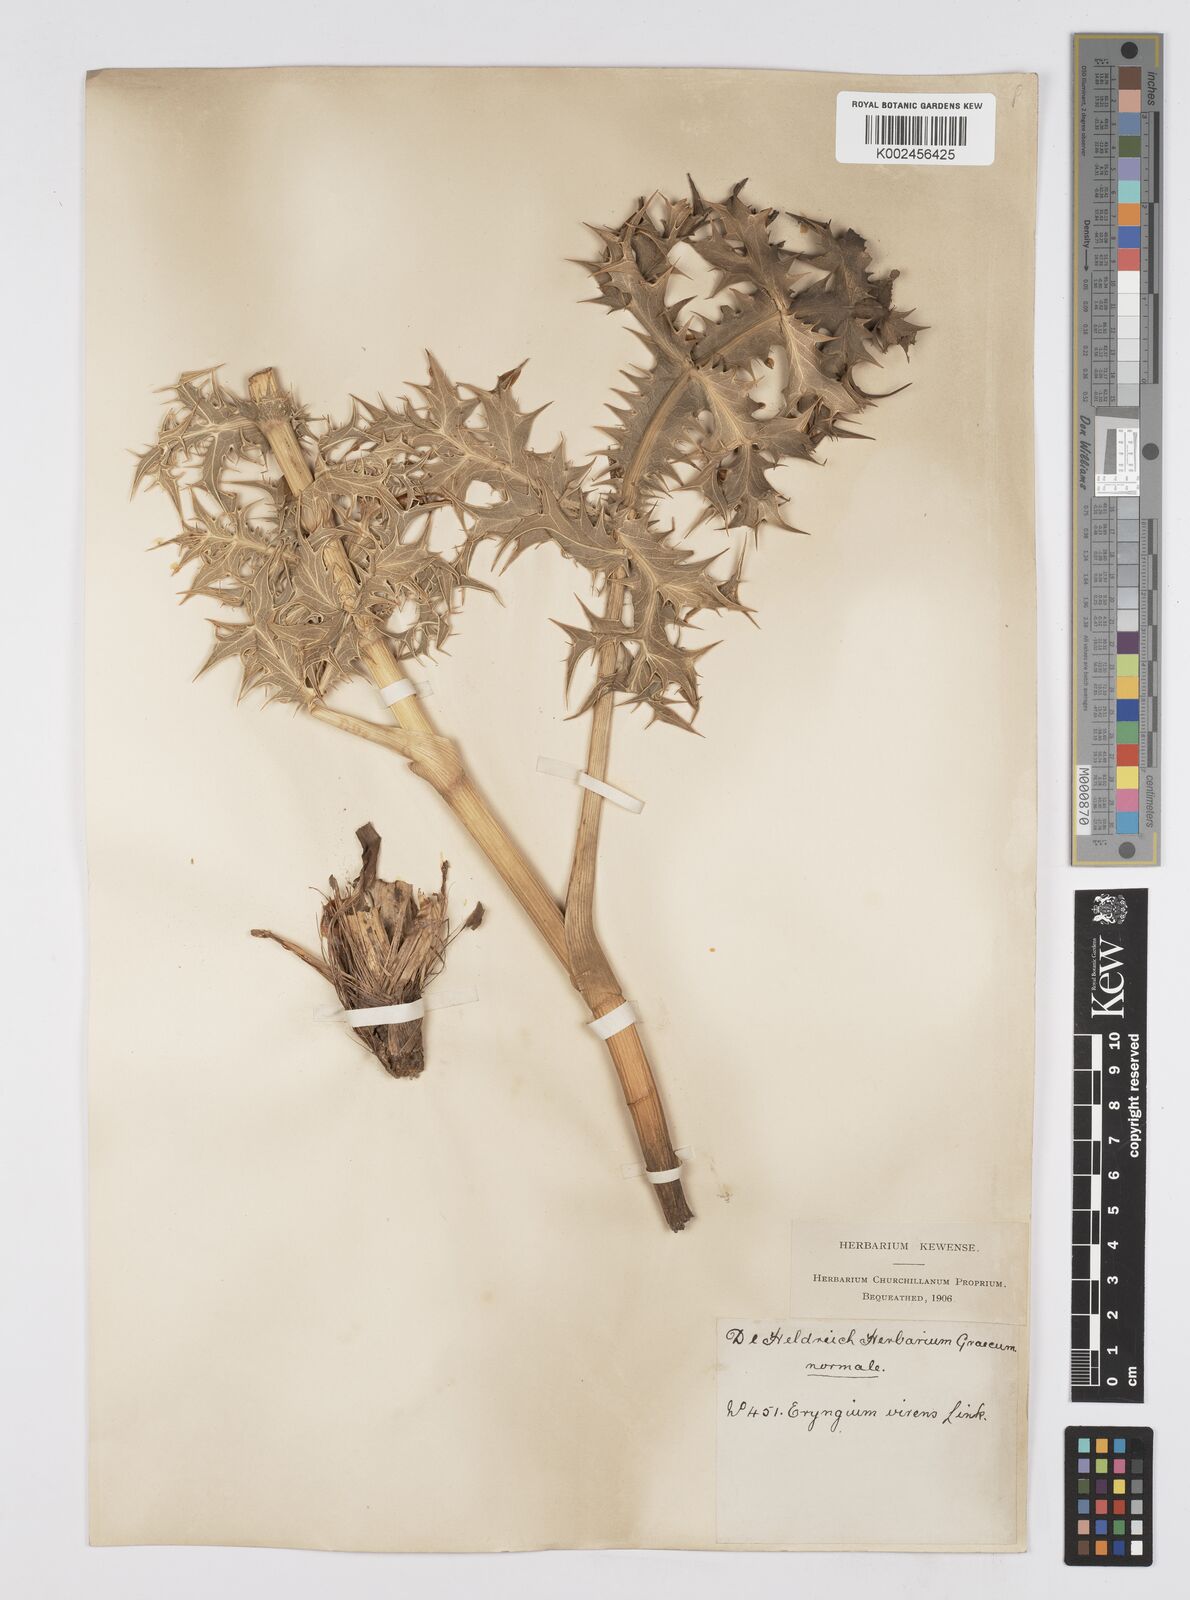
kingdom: Plantae
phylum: Tracheophyta
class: Magnoliopsida
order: Apiales
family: Apiaceae
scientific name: Apiaceae
